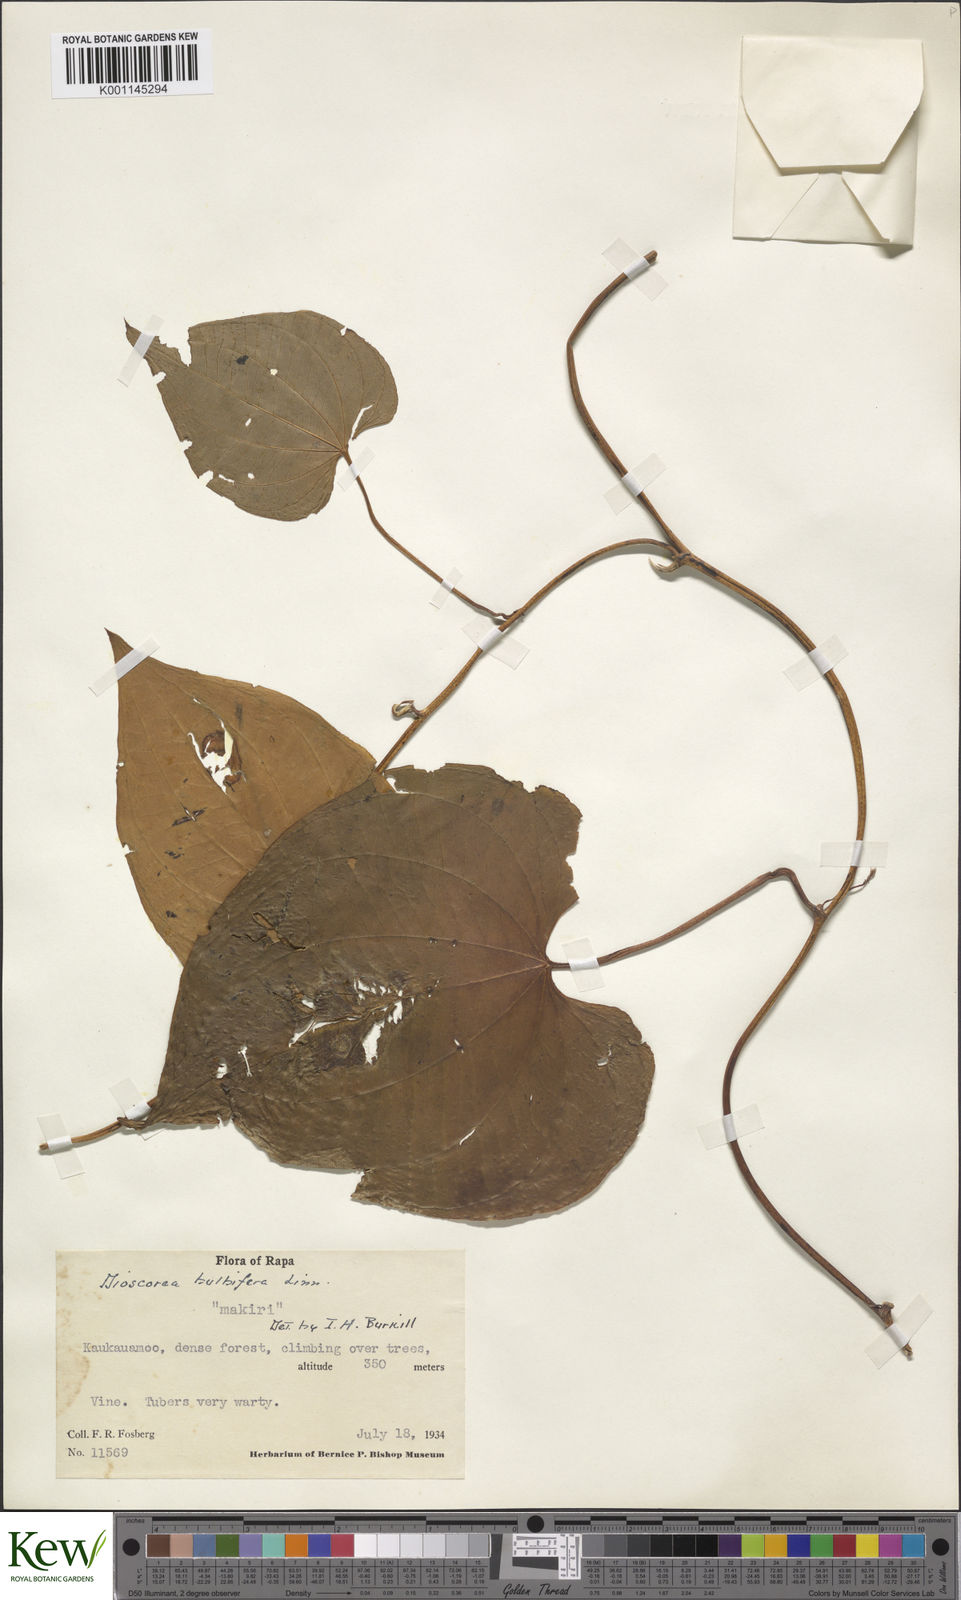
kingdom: Plantae
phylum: Tracheophyta
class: Liliopsida
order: Dioscoreales
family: Dioscoreaceae
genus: Dioscorea
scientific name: Dioscorea bulbifera
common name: Air yam
